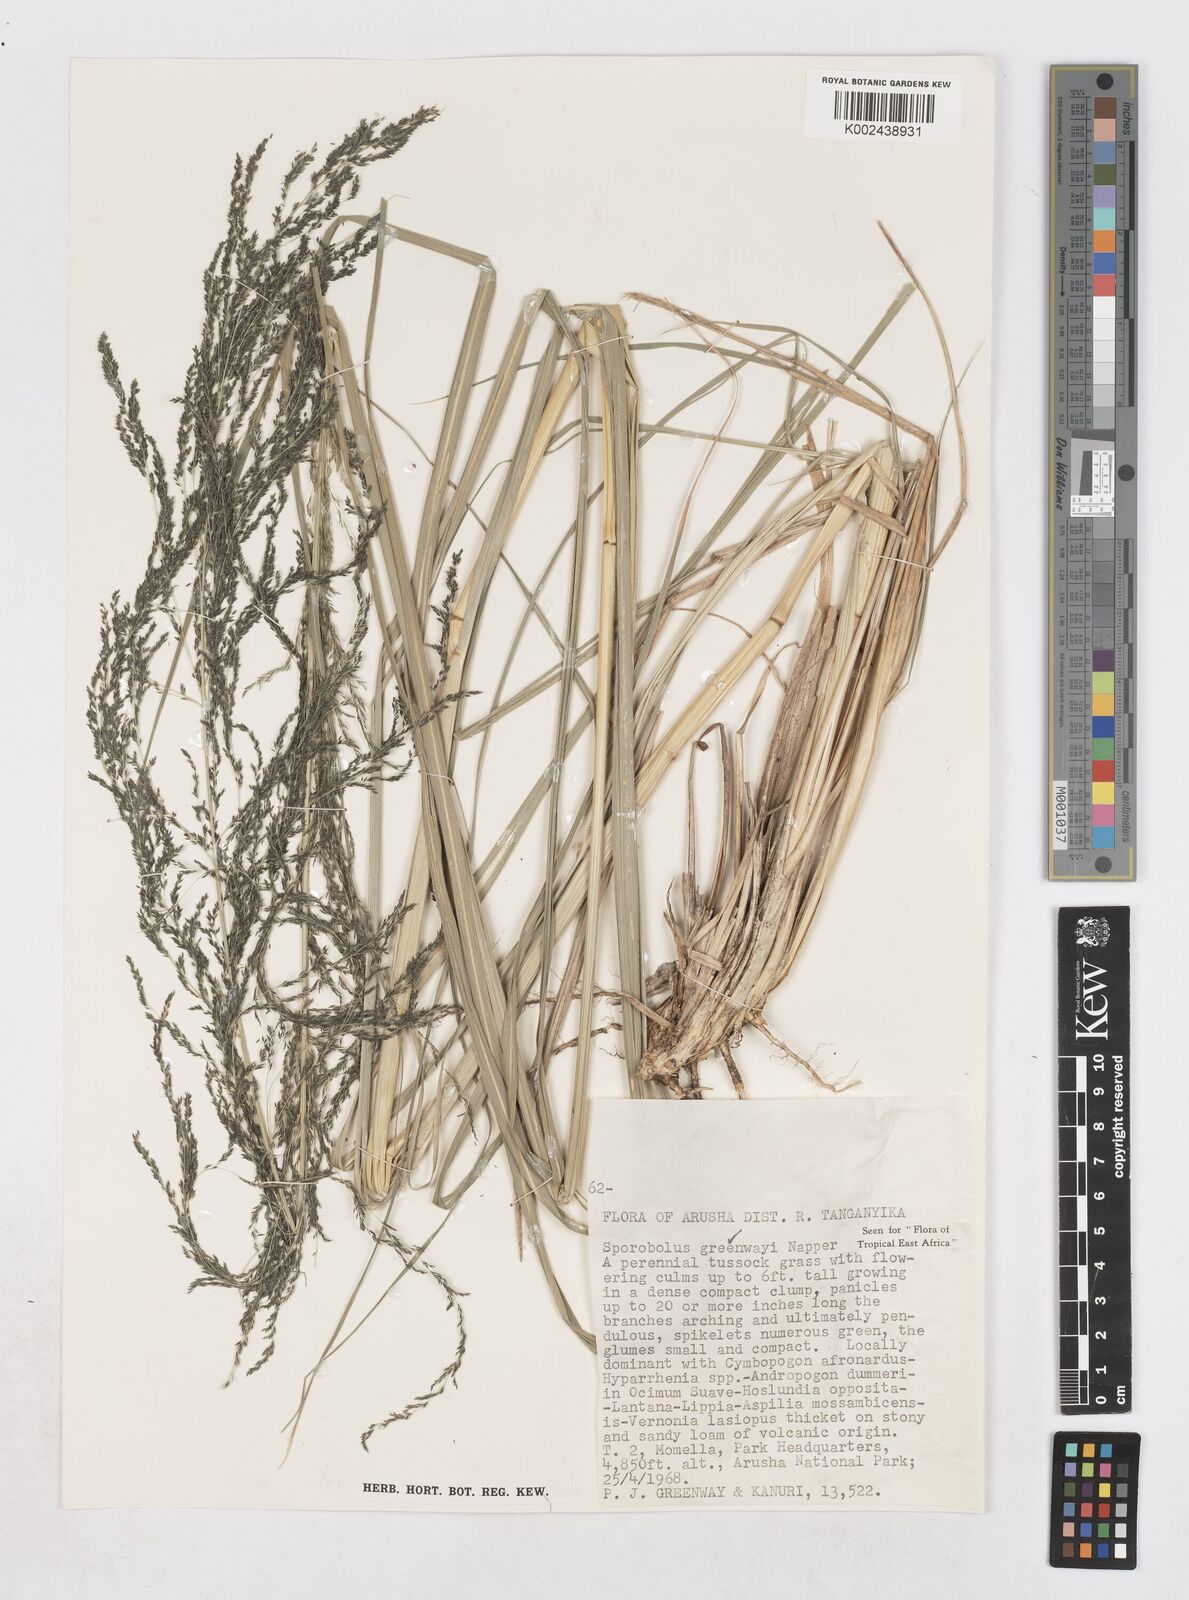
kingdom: Plantae
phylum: Tracheophyta
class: Liliopsida
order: Poales
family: Poaceae
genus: Sporobolus
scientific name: Sporobolus macranthelus
